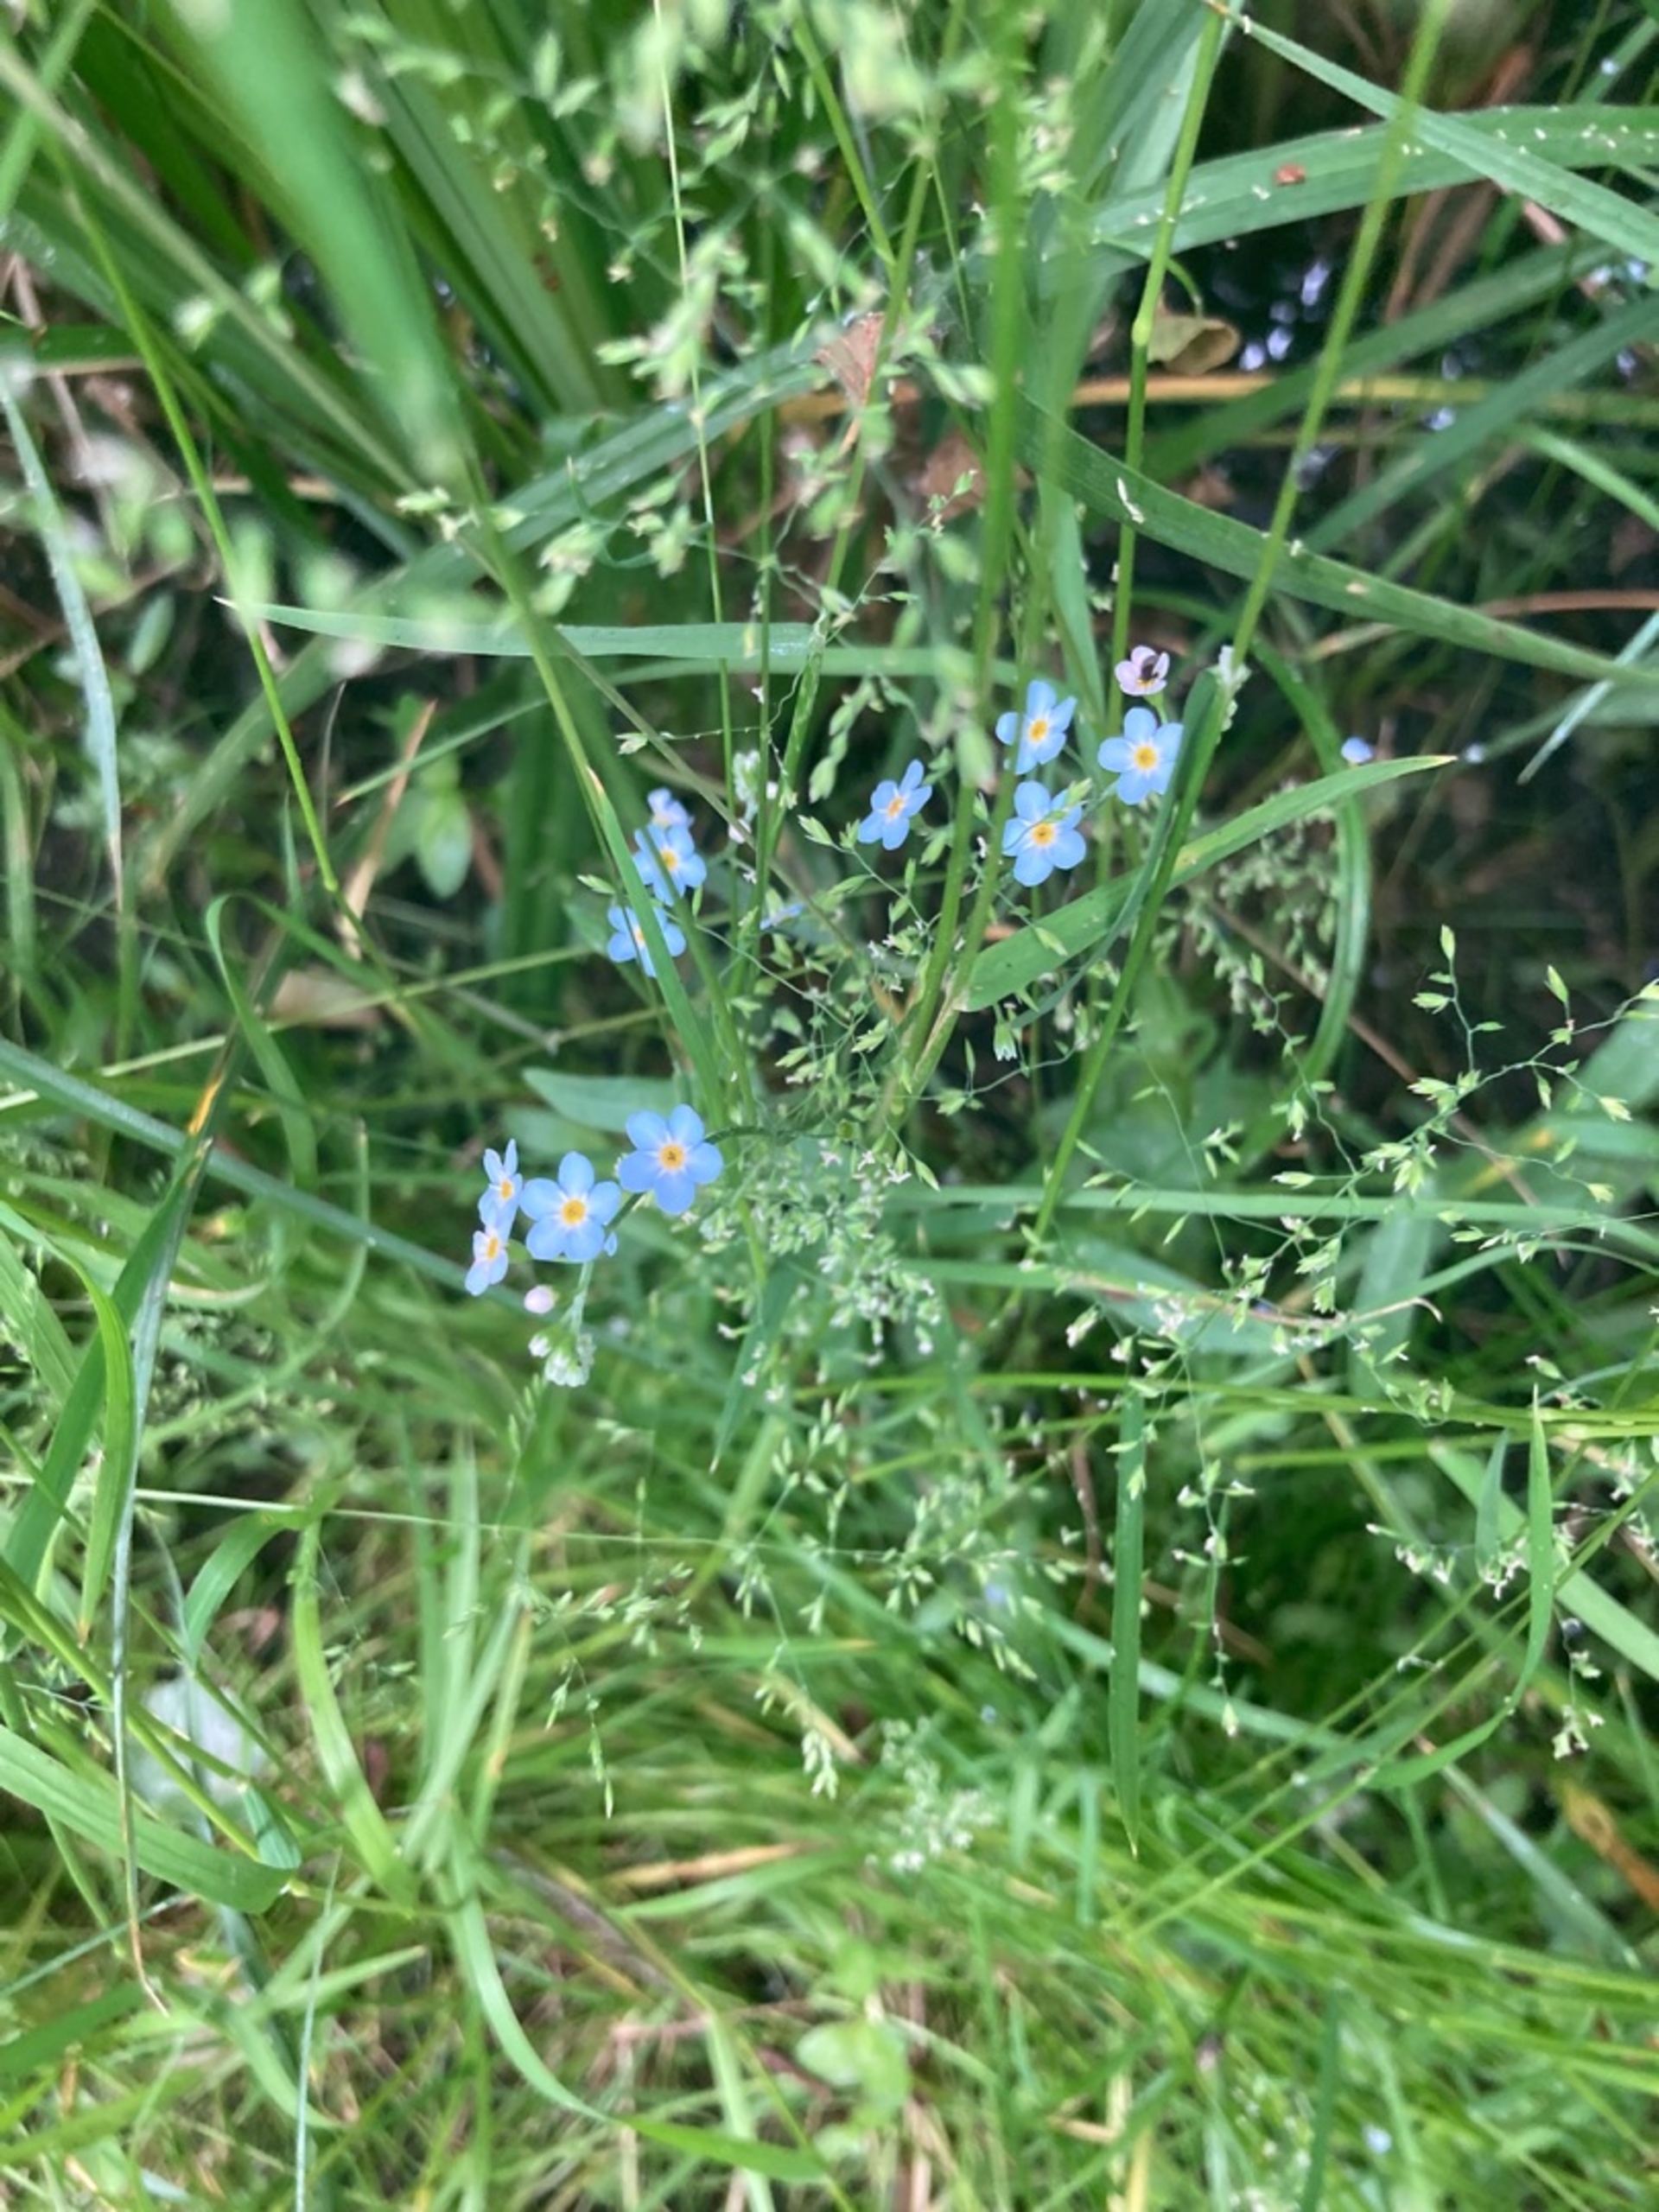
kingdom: Plantae
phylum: Tracheophyta
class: Magnoliopsida
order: Boraginales
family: Boraginaceae
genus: Myosotis
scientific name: Myosotis scorpioides
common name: Eng-forglemmigej
